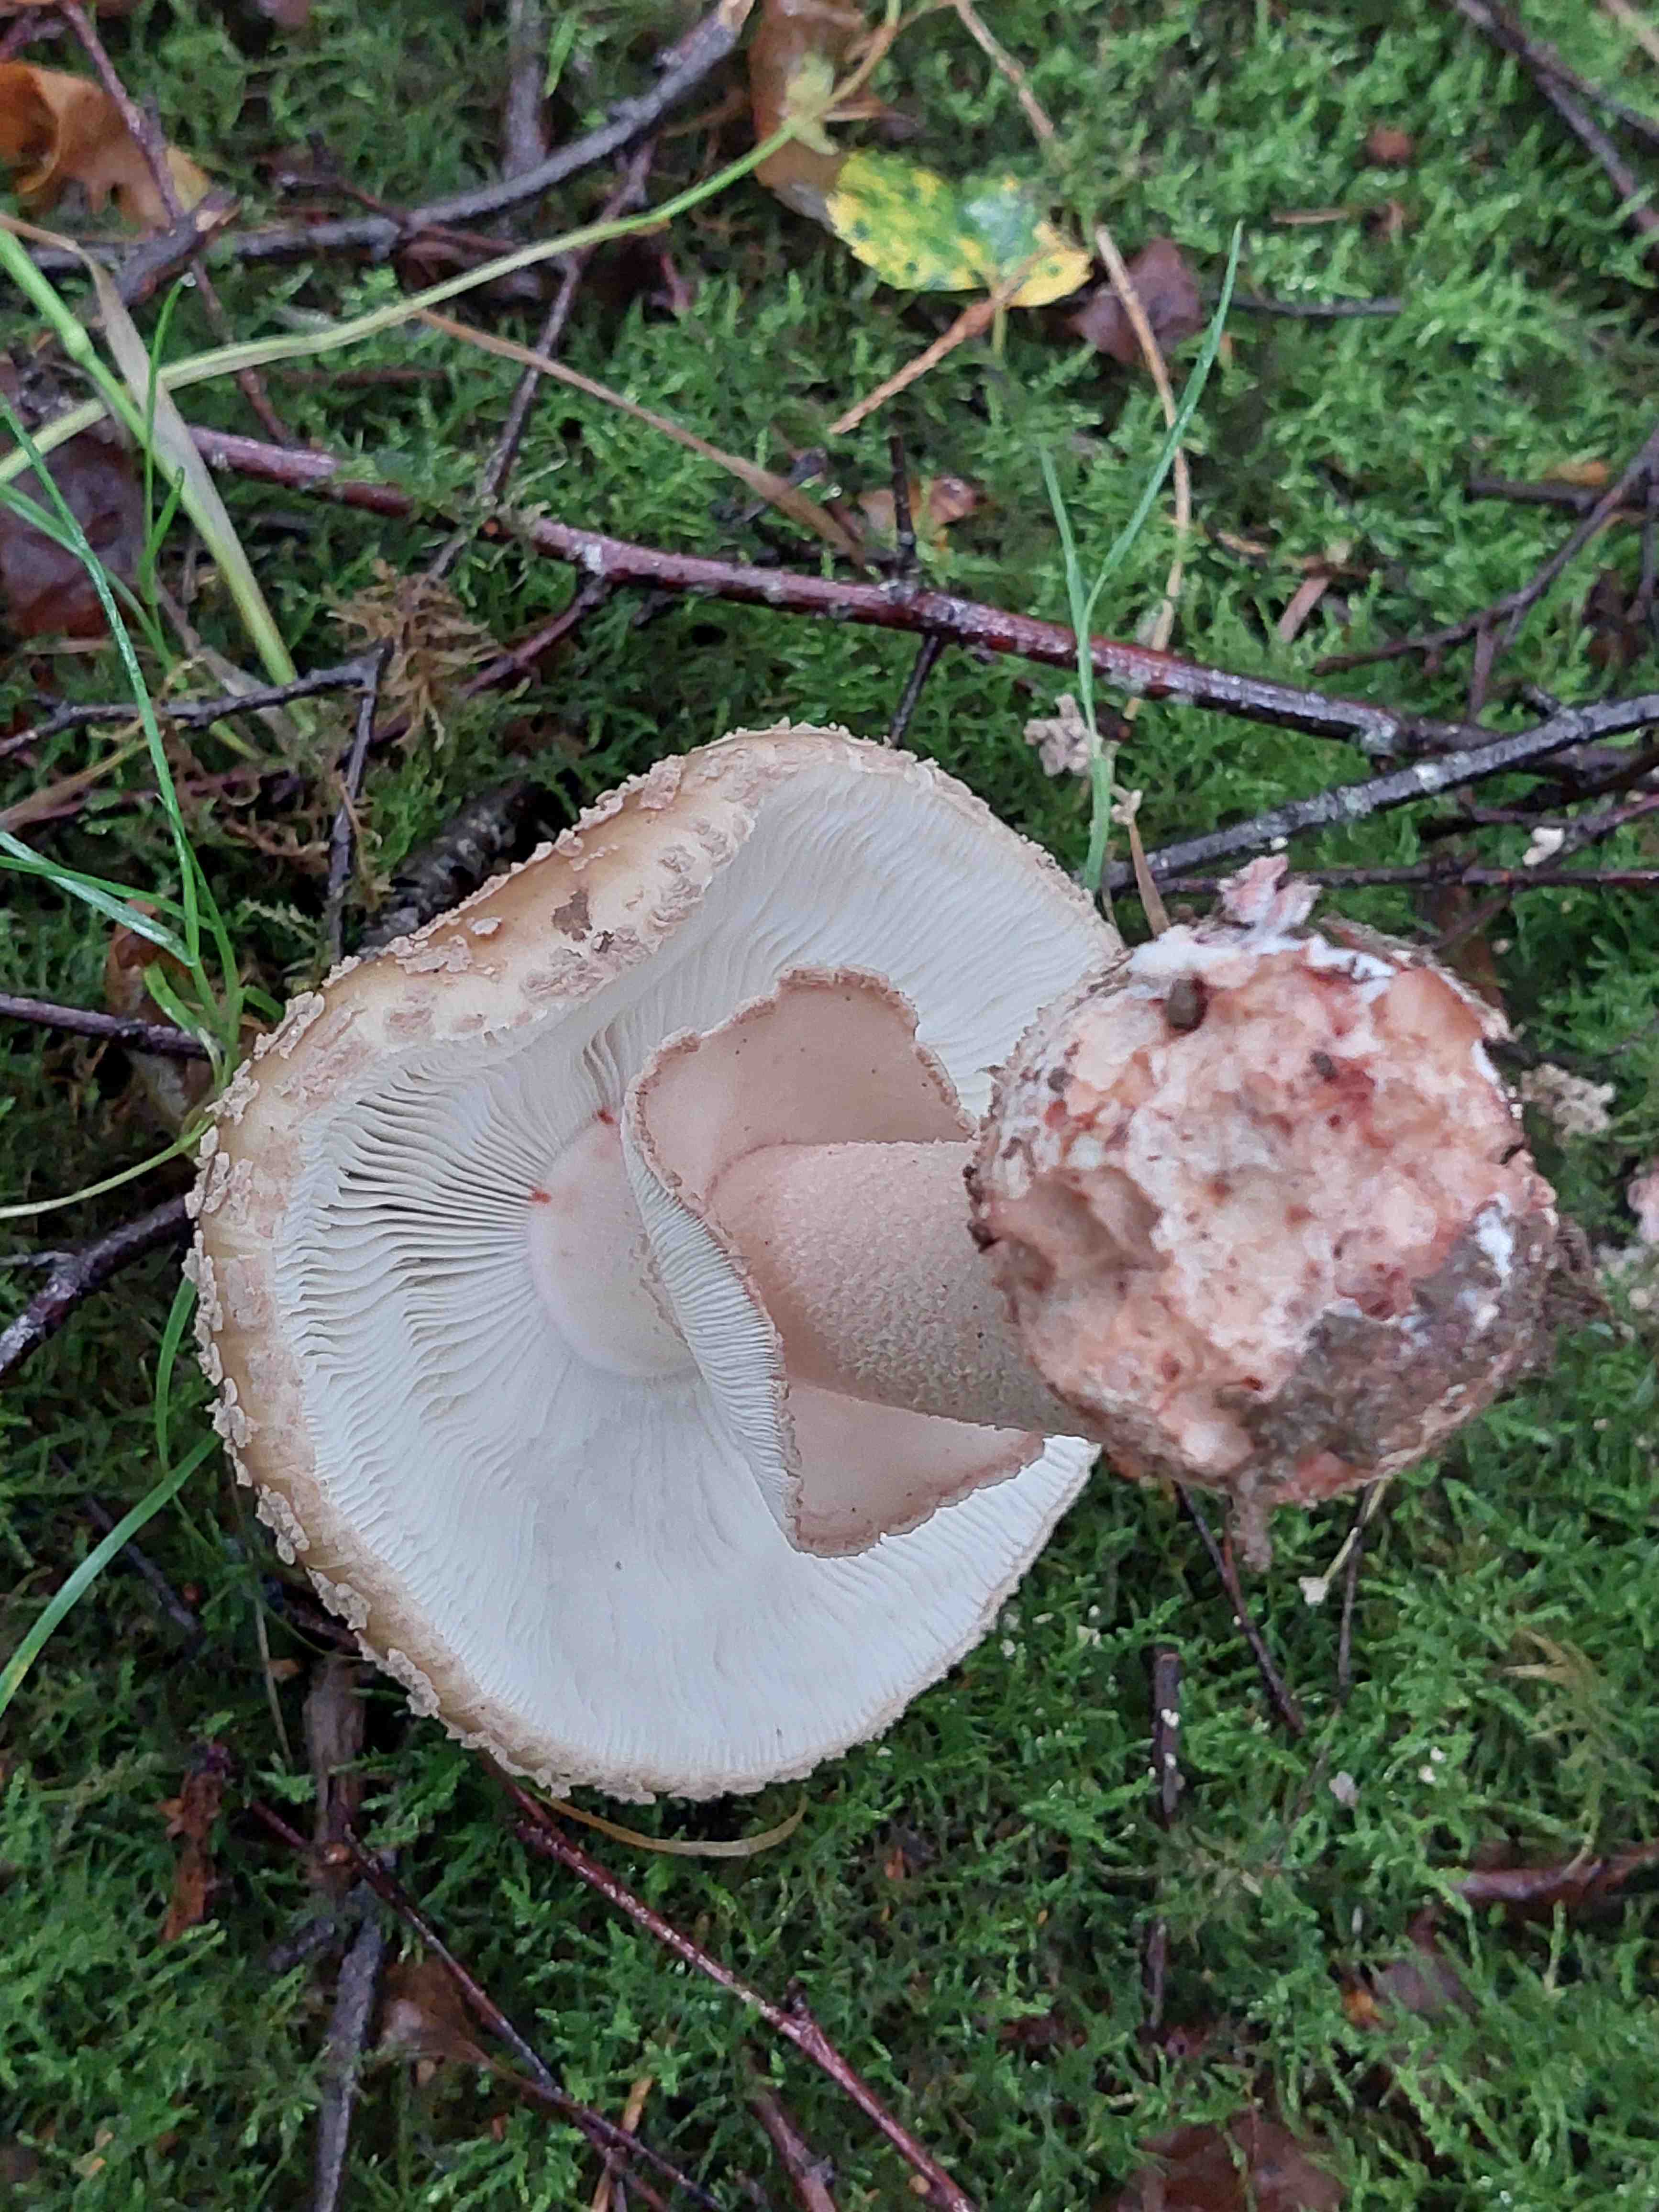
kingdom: Fungi
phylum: Basidiomycota
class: Agaricomycetes
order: Agaricales
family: Amanitaceae
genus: Amanita
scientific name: Amanita rubescens
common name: rødmende fluesvamp
